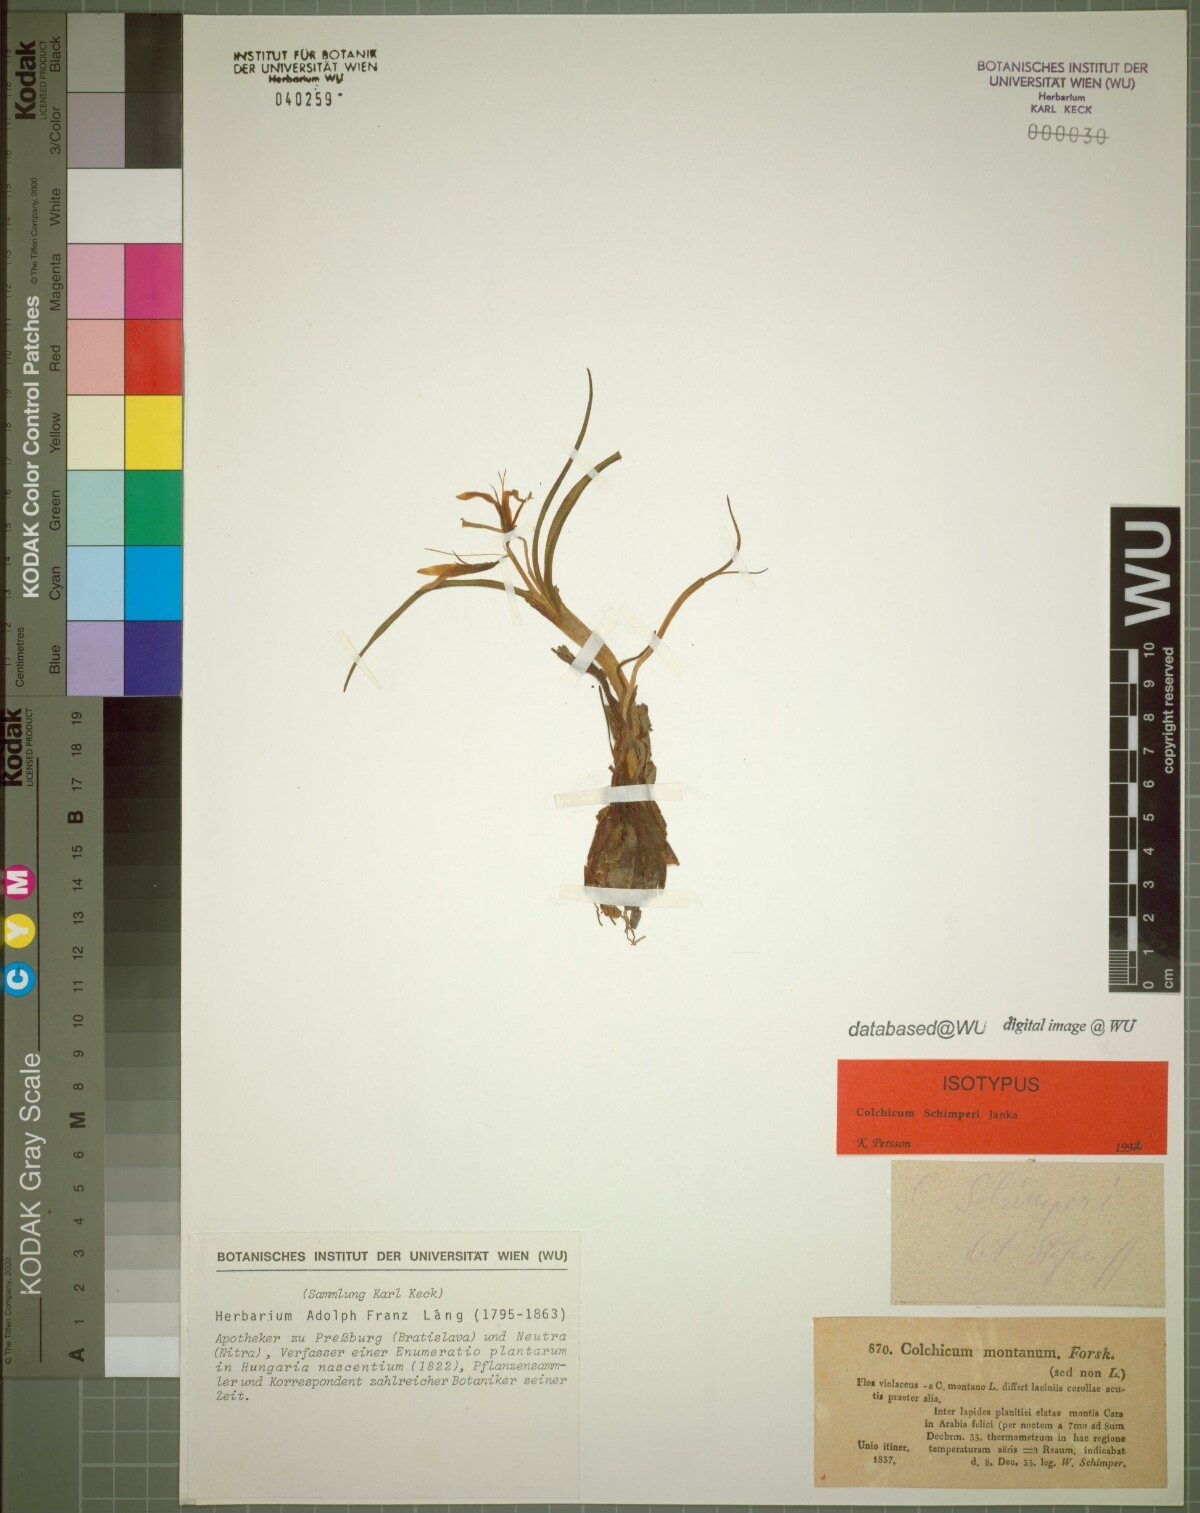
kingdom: Plantae
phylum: Tracheophyta
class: Liliopsida
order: Liliales
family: Colchicaceae
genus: Colchicum
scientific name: Colchicum schimperi
